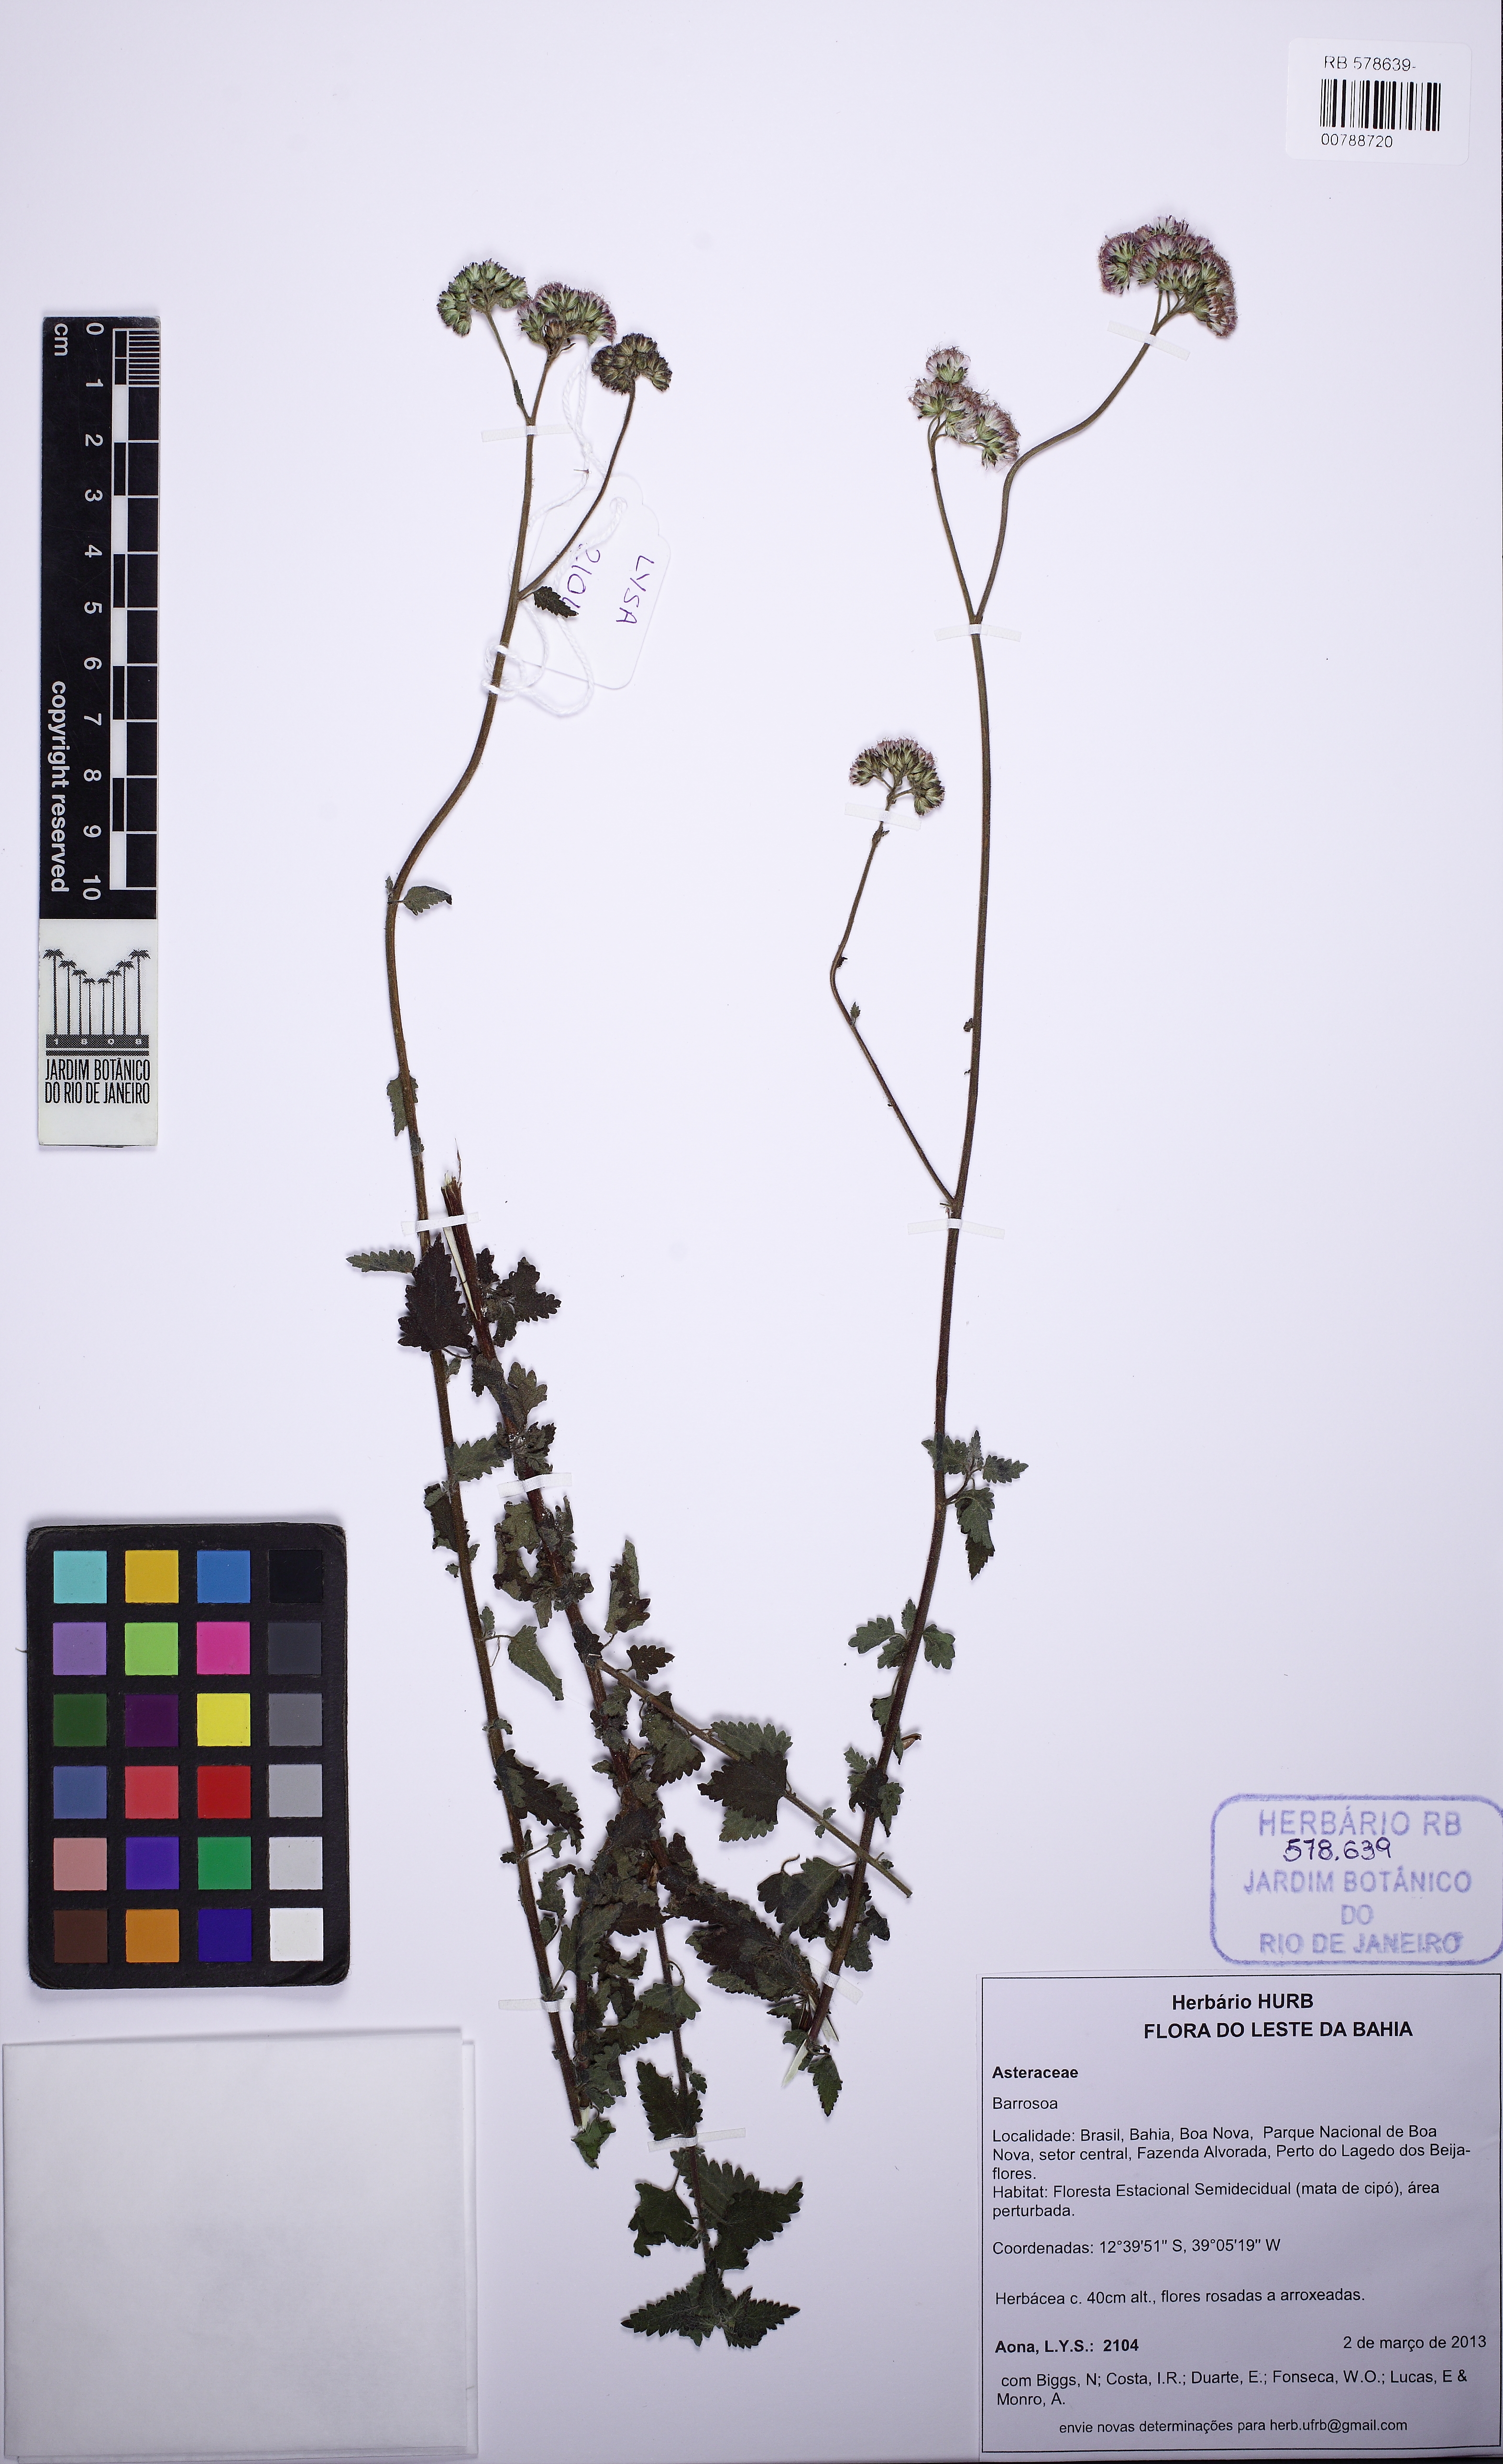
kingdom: Plantae
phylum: Tracheophyta
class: Magnoliopsida
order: Asterales
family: Asteraceae
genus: Conocliniopsis
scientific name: Conocliniopsis grossedentata
